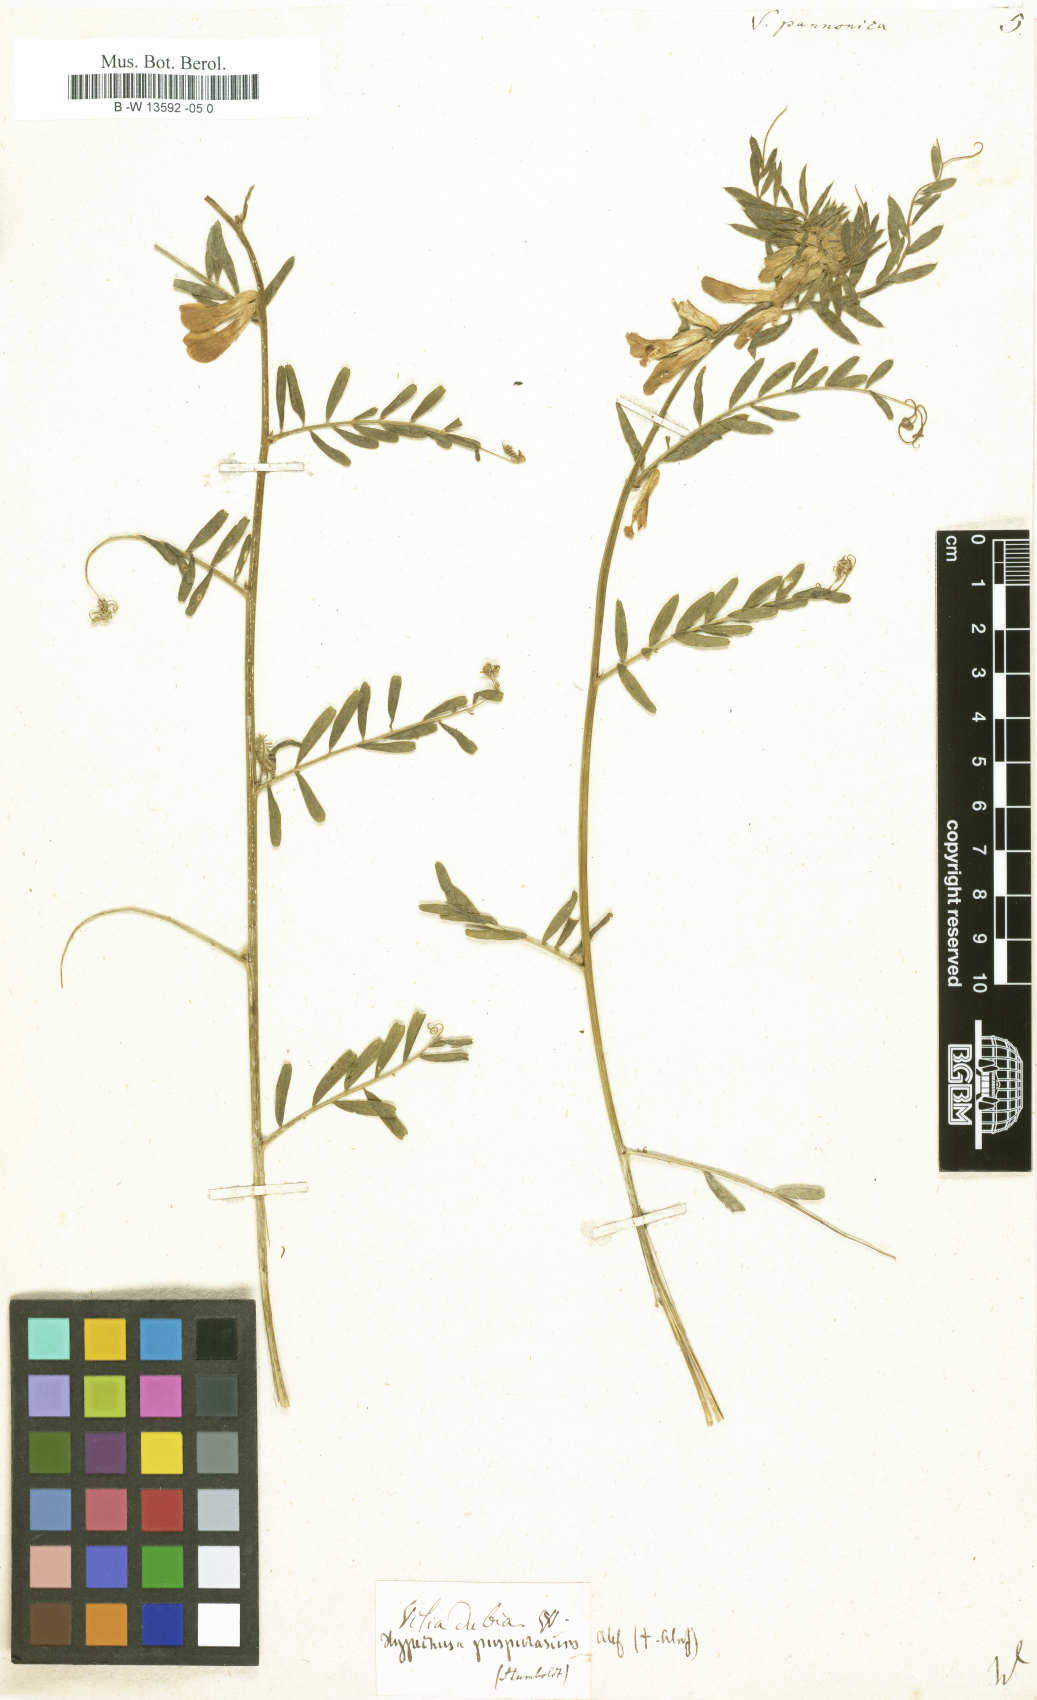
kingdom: Plantae
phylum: Tracheophyta
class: Magnoliopsida
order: Fabales
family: Fabaceae
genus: Vicia
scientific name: Vicia pannonica
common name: Hungarian vetch
